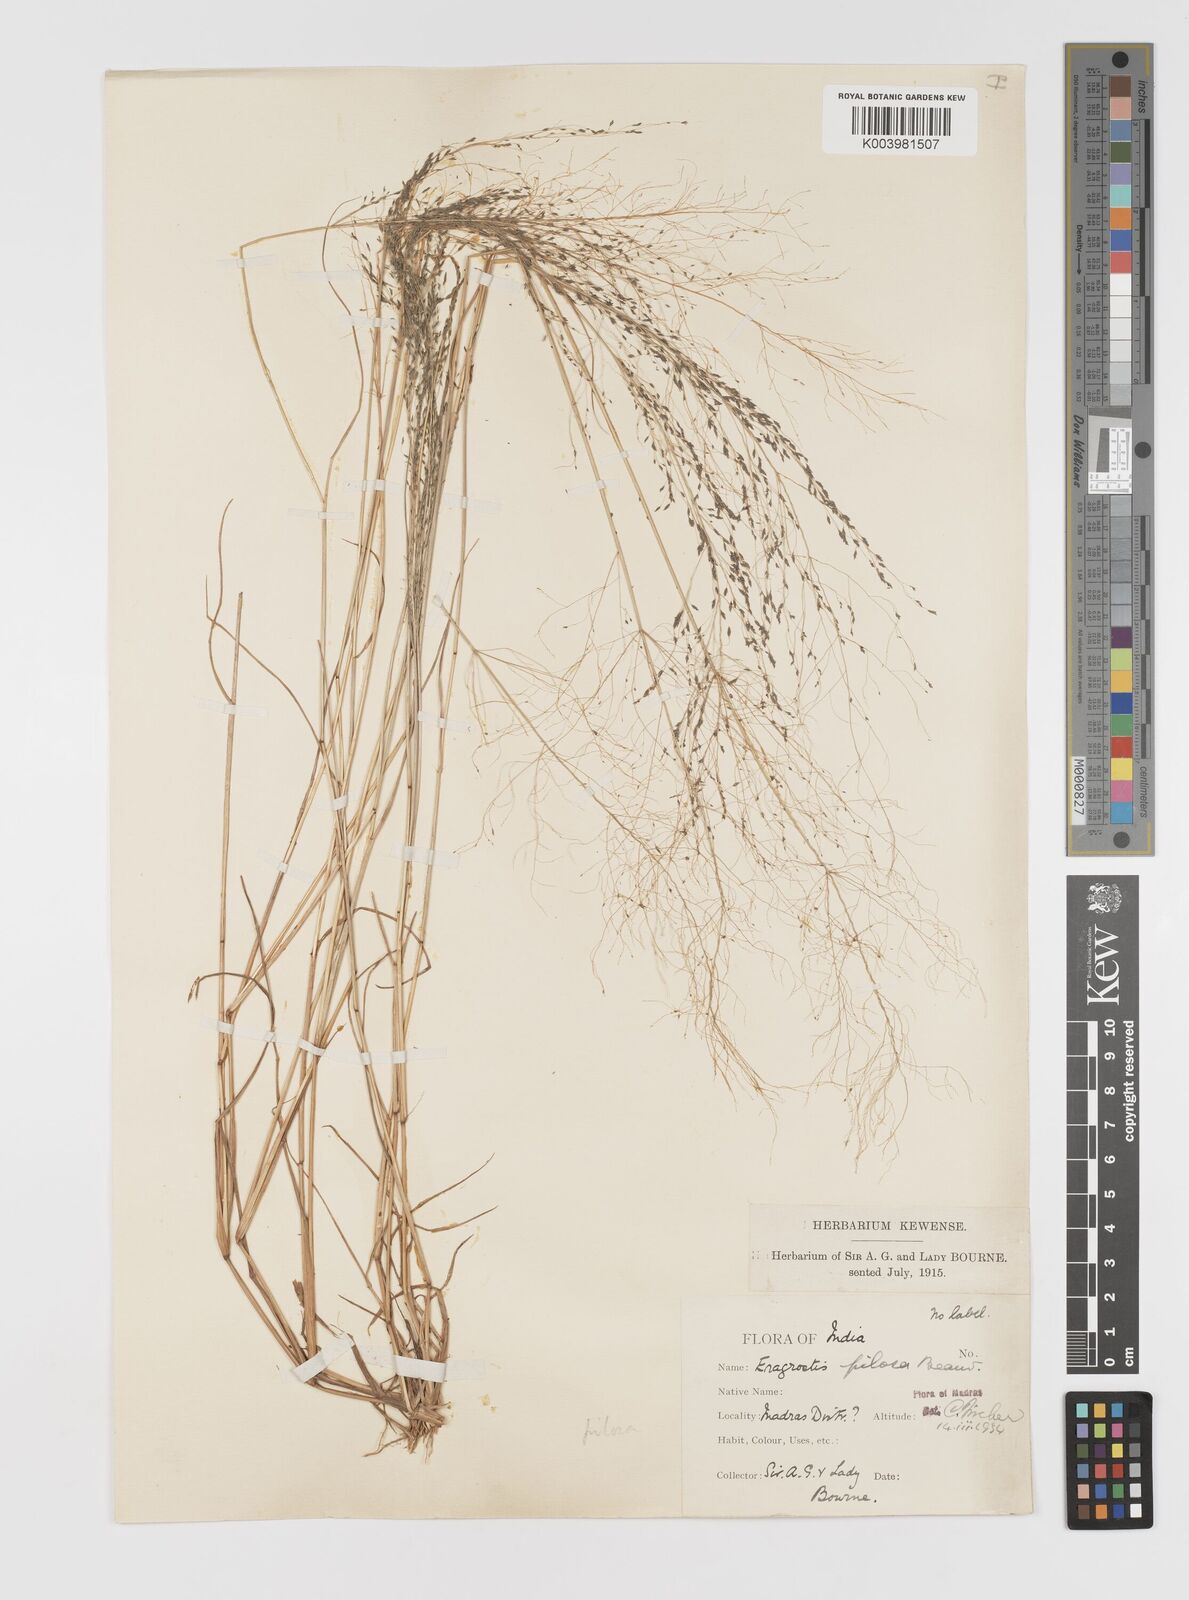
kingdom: Plantae
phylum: Tracheophyta
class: Liliopsida
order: Poales
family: Poaceae
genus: Eragrostis
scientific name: Eragrostis pilosa
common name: Indian lovegrass
